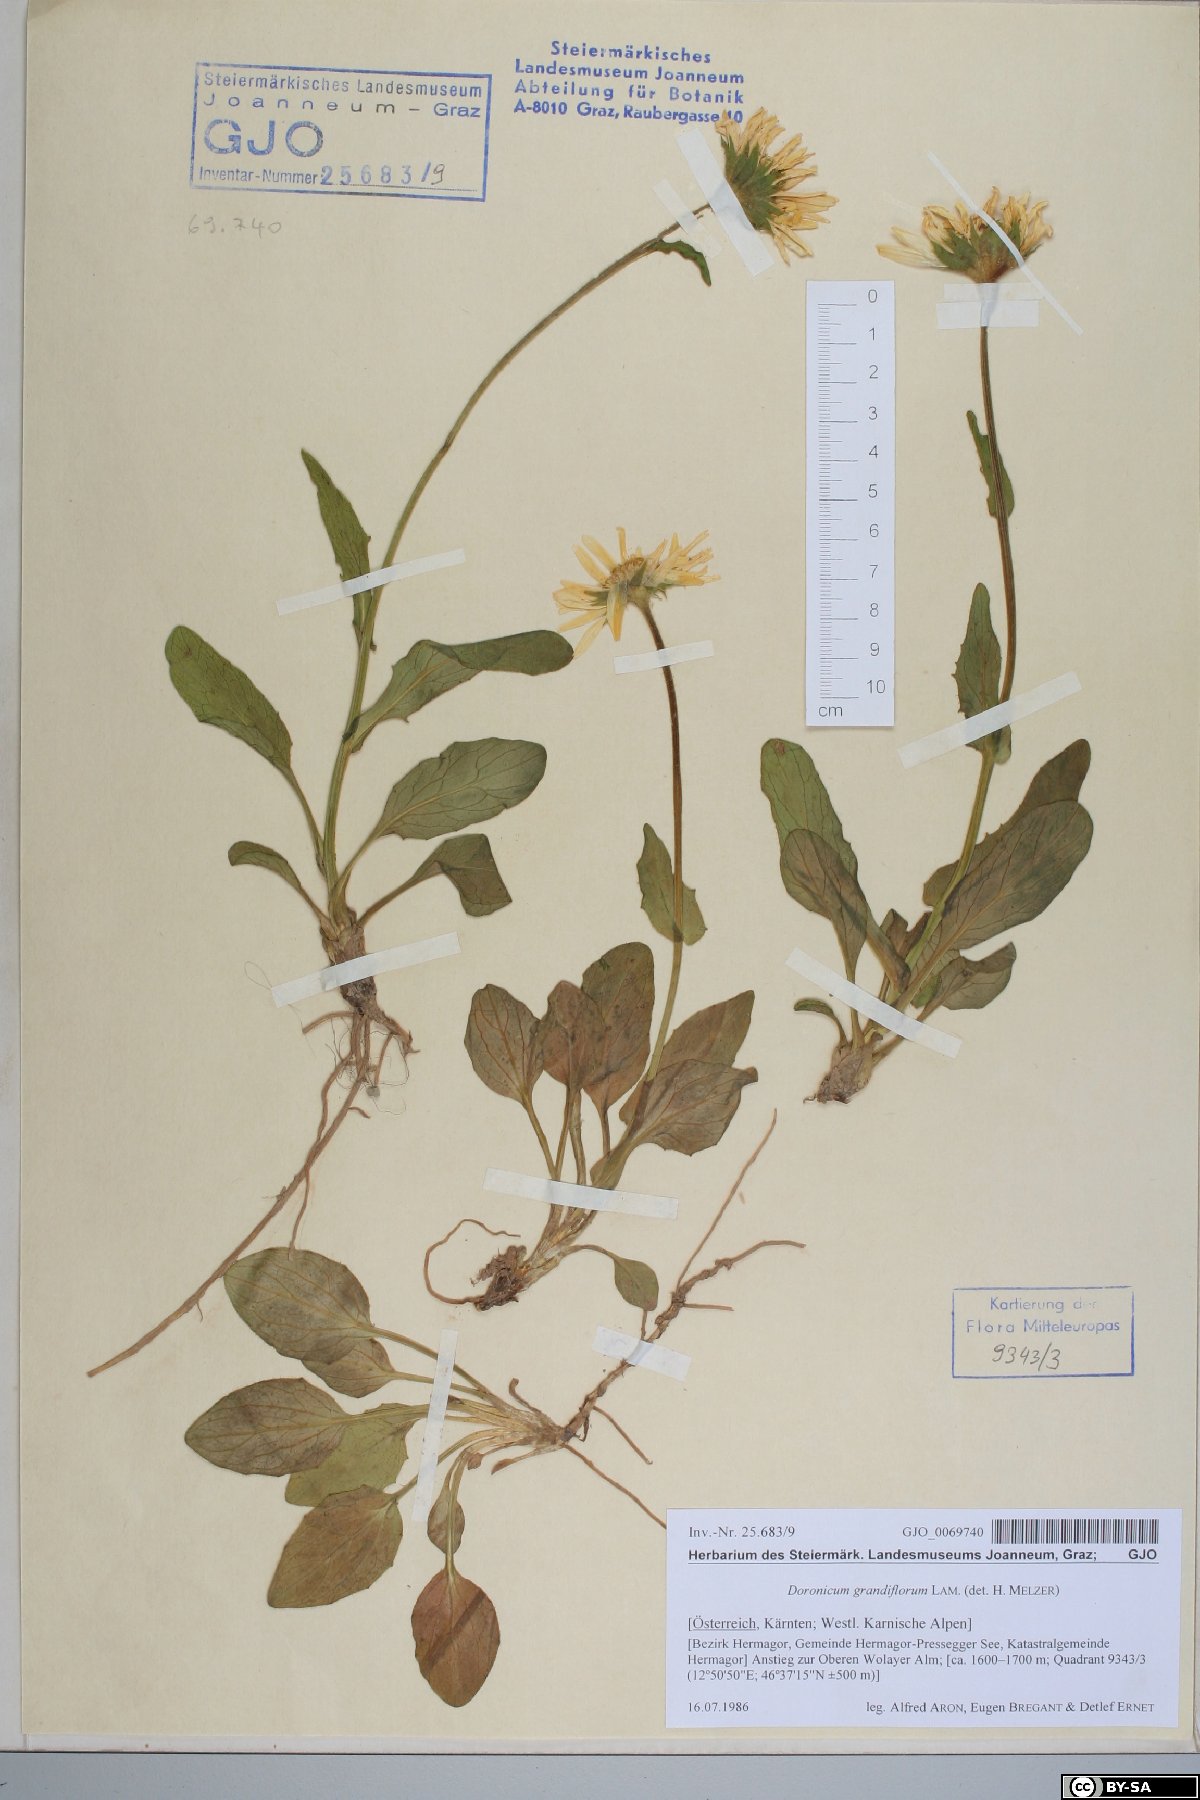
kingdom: Plantae
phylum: Tracheophyta
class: Magnoliopsida
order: Asterales
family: Asteraceae
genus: Doronicum
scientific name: Doronicum grandiflorum
